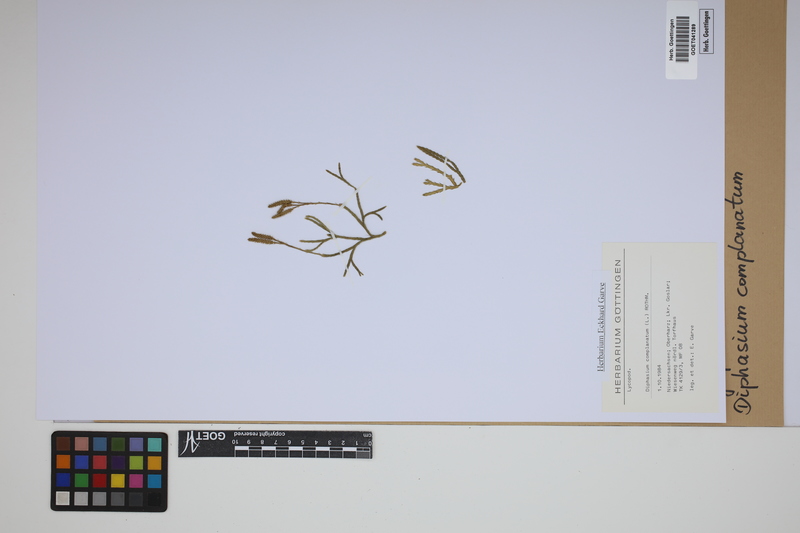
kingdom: Plantae
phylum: Tracheophyta
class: Lycopodiopsida
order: Lycopodiales
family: Lycopodiaceae
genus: Diphasiastrum
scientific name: Diphasiastrum complanatum
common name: Northern running-pine
